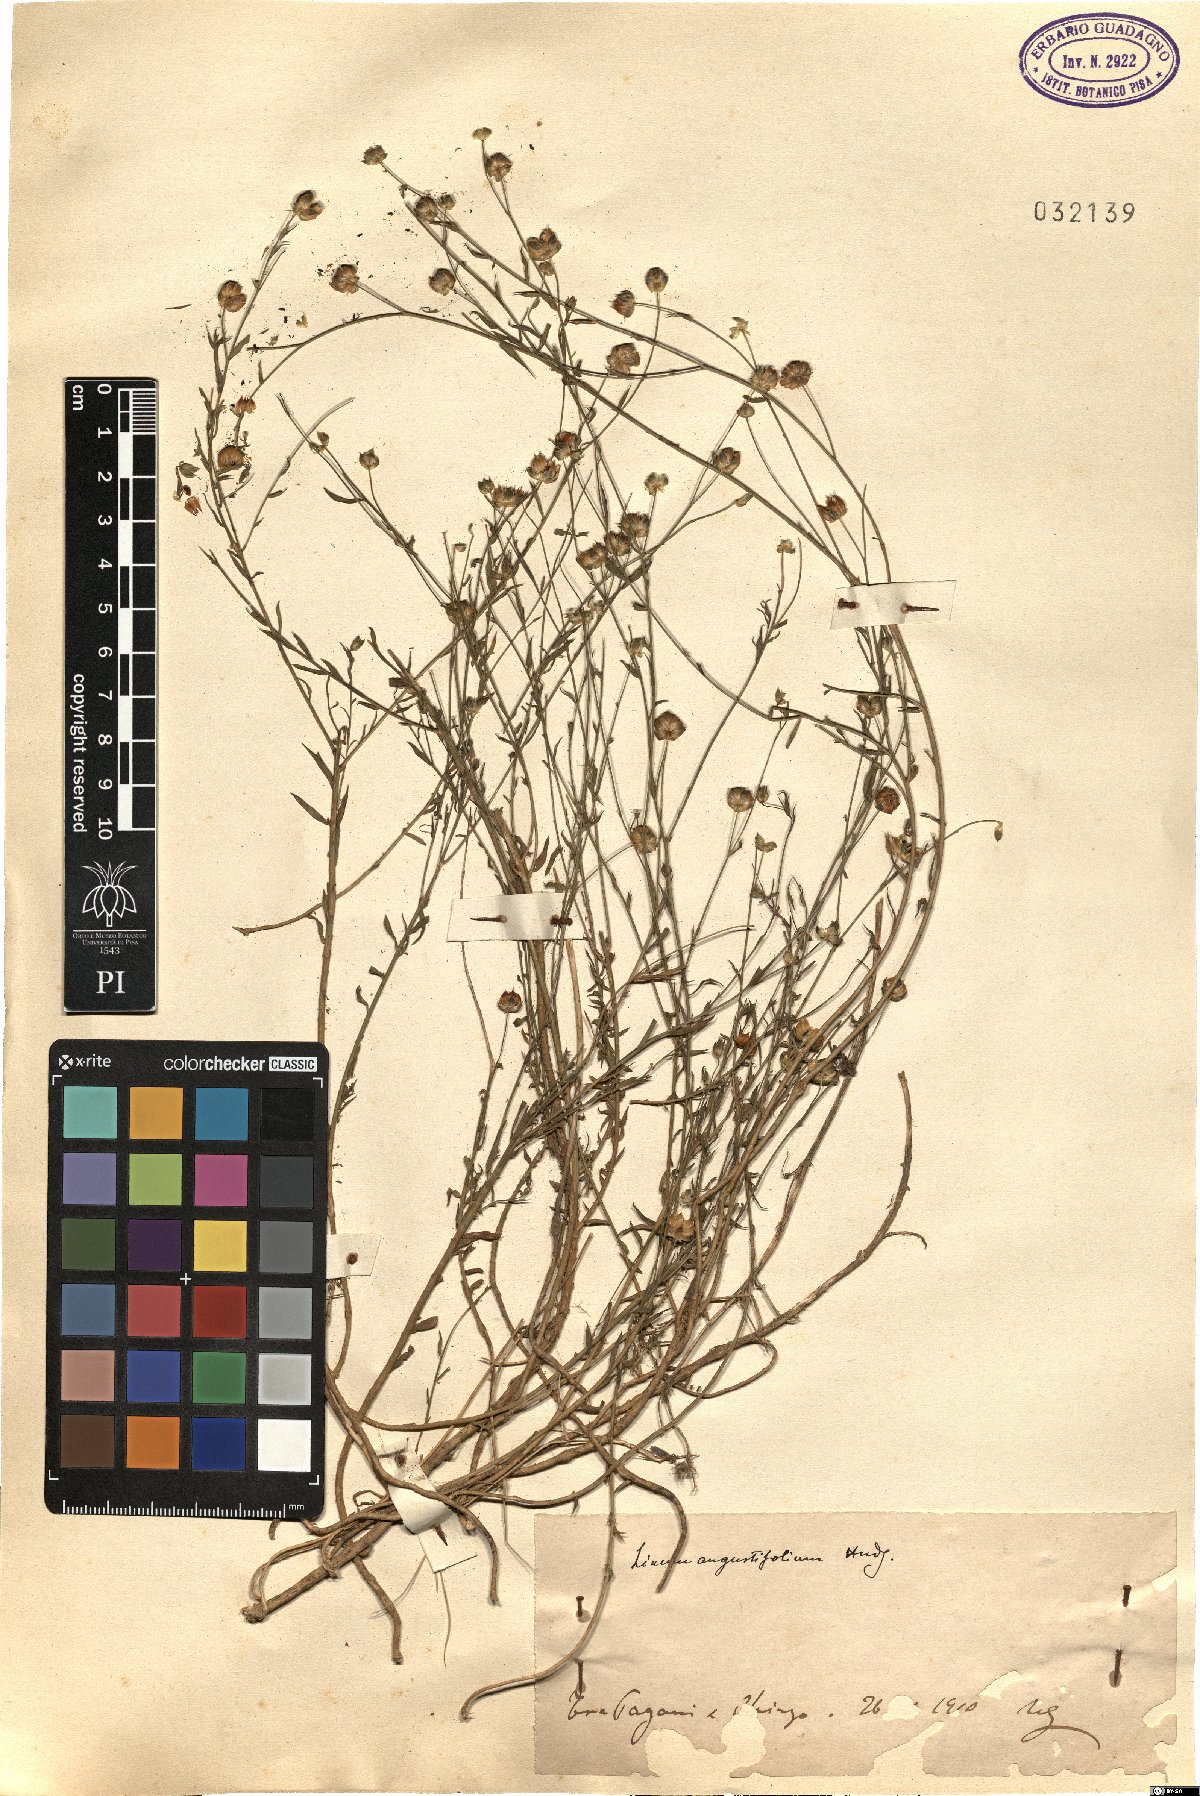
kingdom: Plantae
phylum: Tracheophyta
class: Magnoliopsida
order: Malpighiales
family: Linaceae
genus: Linum
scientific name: Linum bienne
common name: Pale flax
